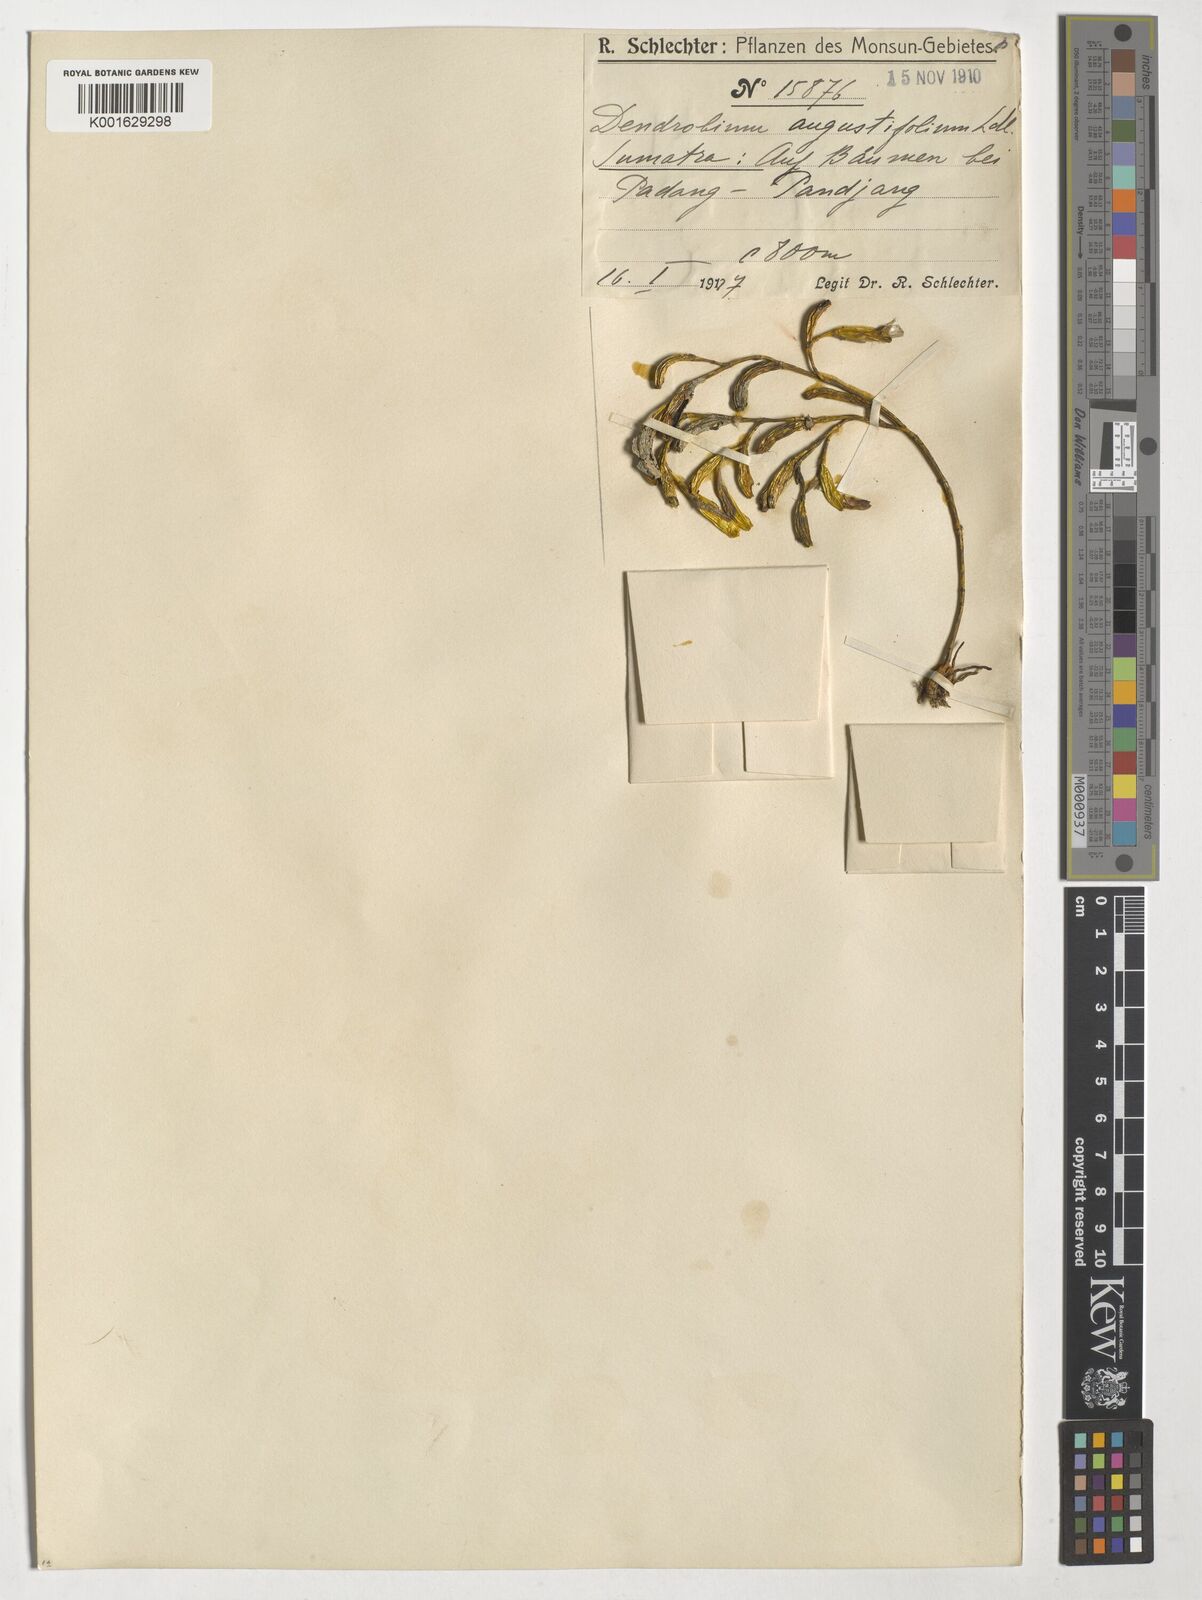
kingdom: Plantae
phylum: Tracheophyta
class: Liliopsida
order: Asparagales
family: Orchidaceae
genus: Dendrobium
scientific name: Dendrobium
